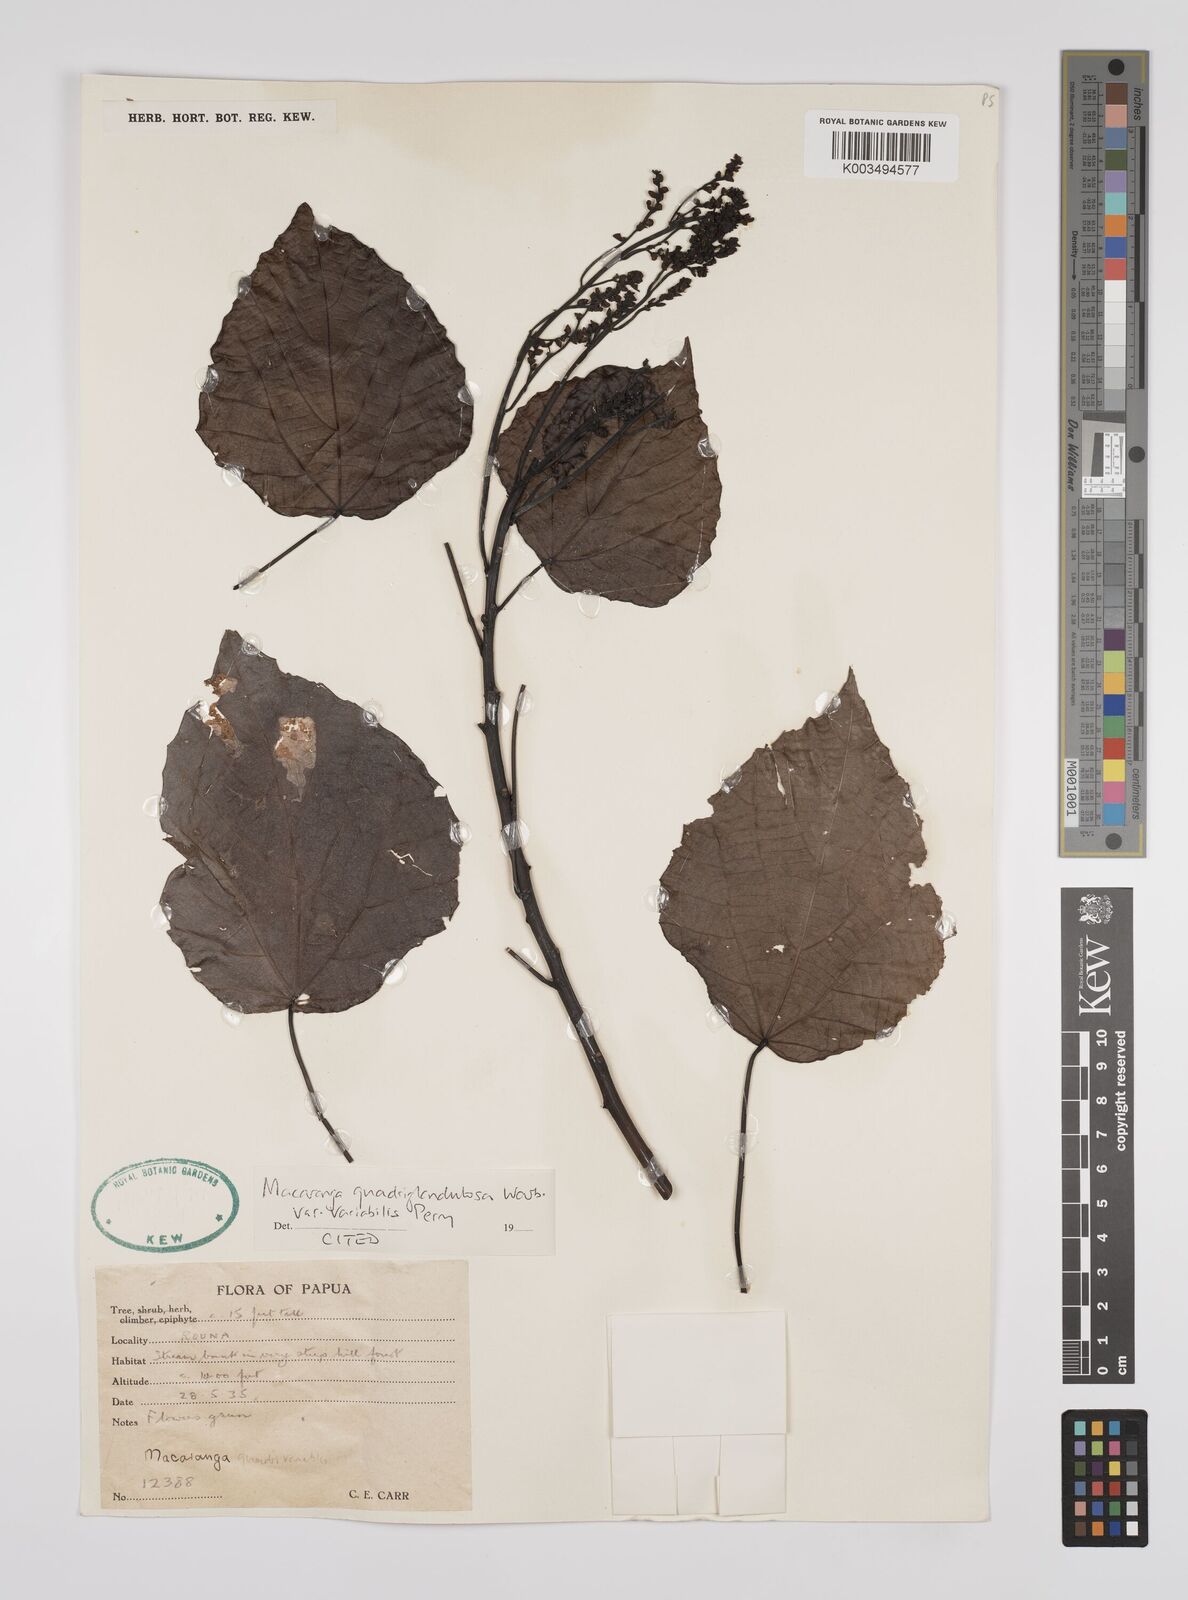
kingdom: Plantae
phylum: Tracheophyta
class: Magnoliopsida
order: Malpighiales
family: Euphorbiaceae
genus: Macaranga
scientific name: Macaranga quadriglandulosa
